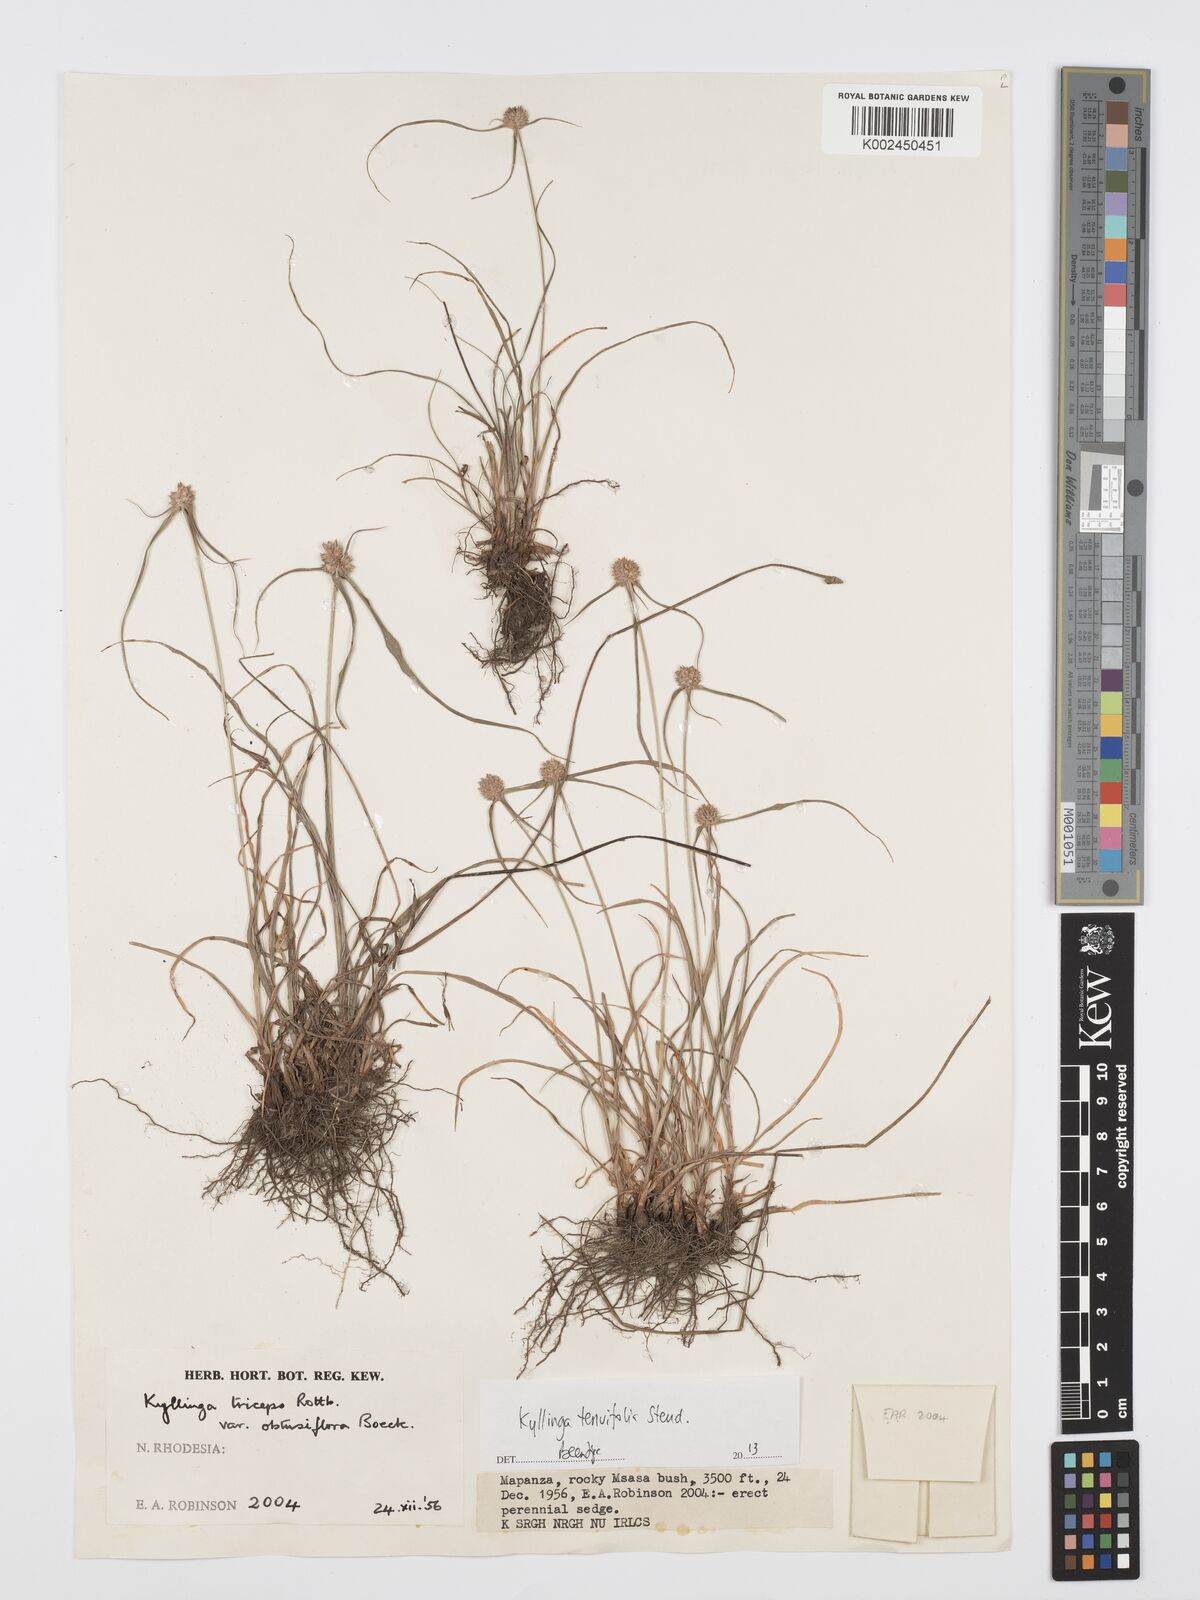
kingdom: Plantae
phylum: Tracheophyta
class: Liliopsida
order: Poales
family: Cyperaceae
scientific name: Cyperaceae
